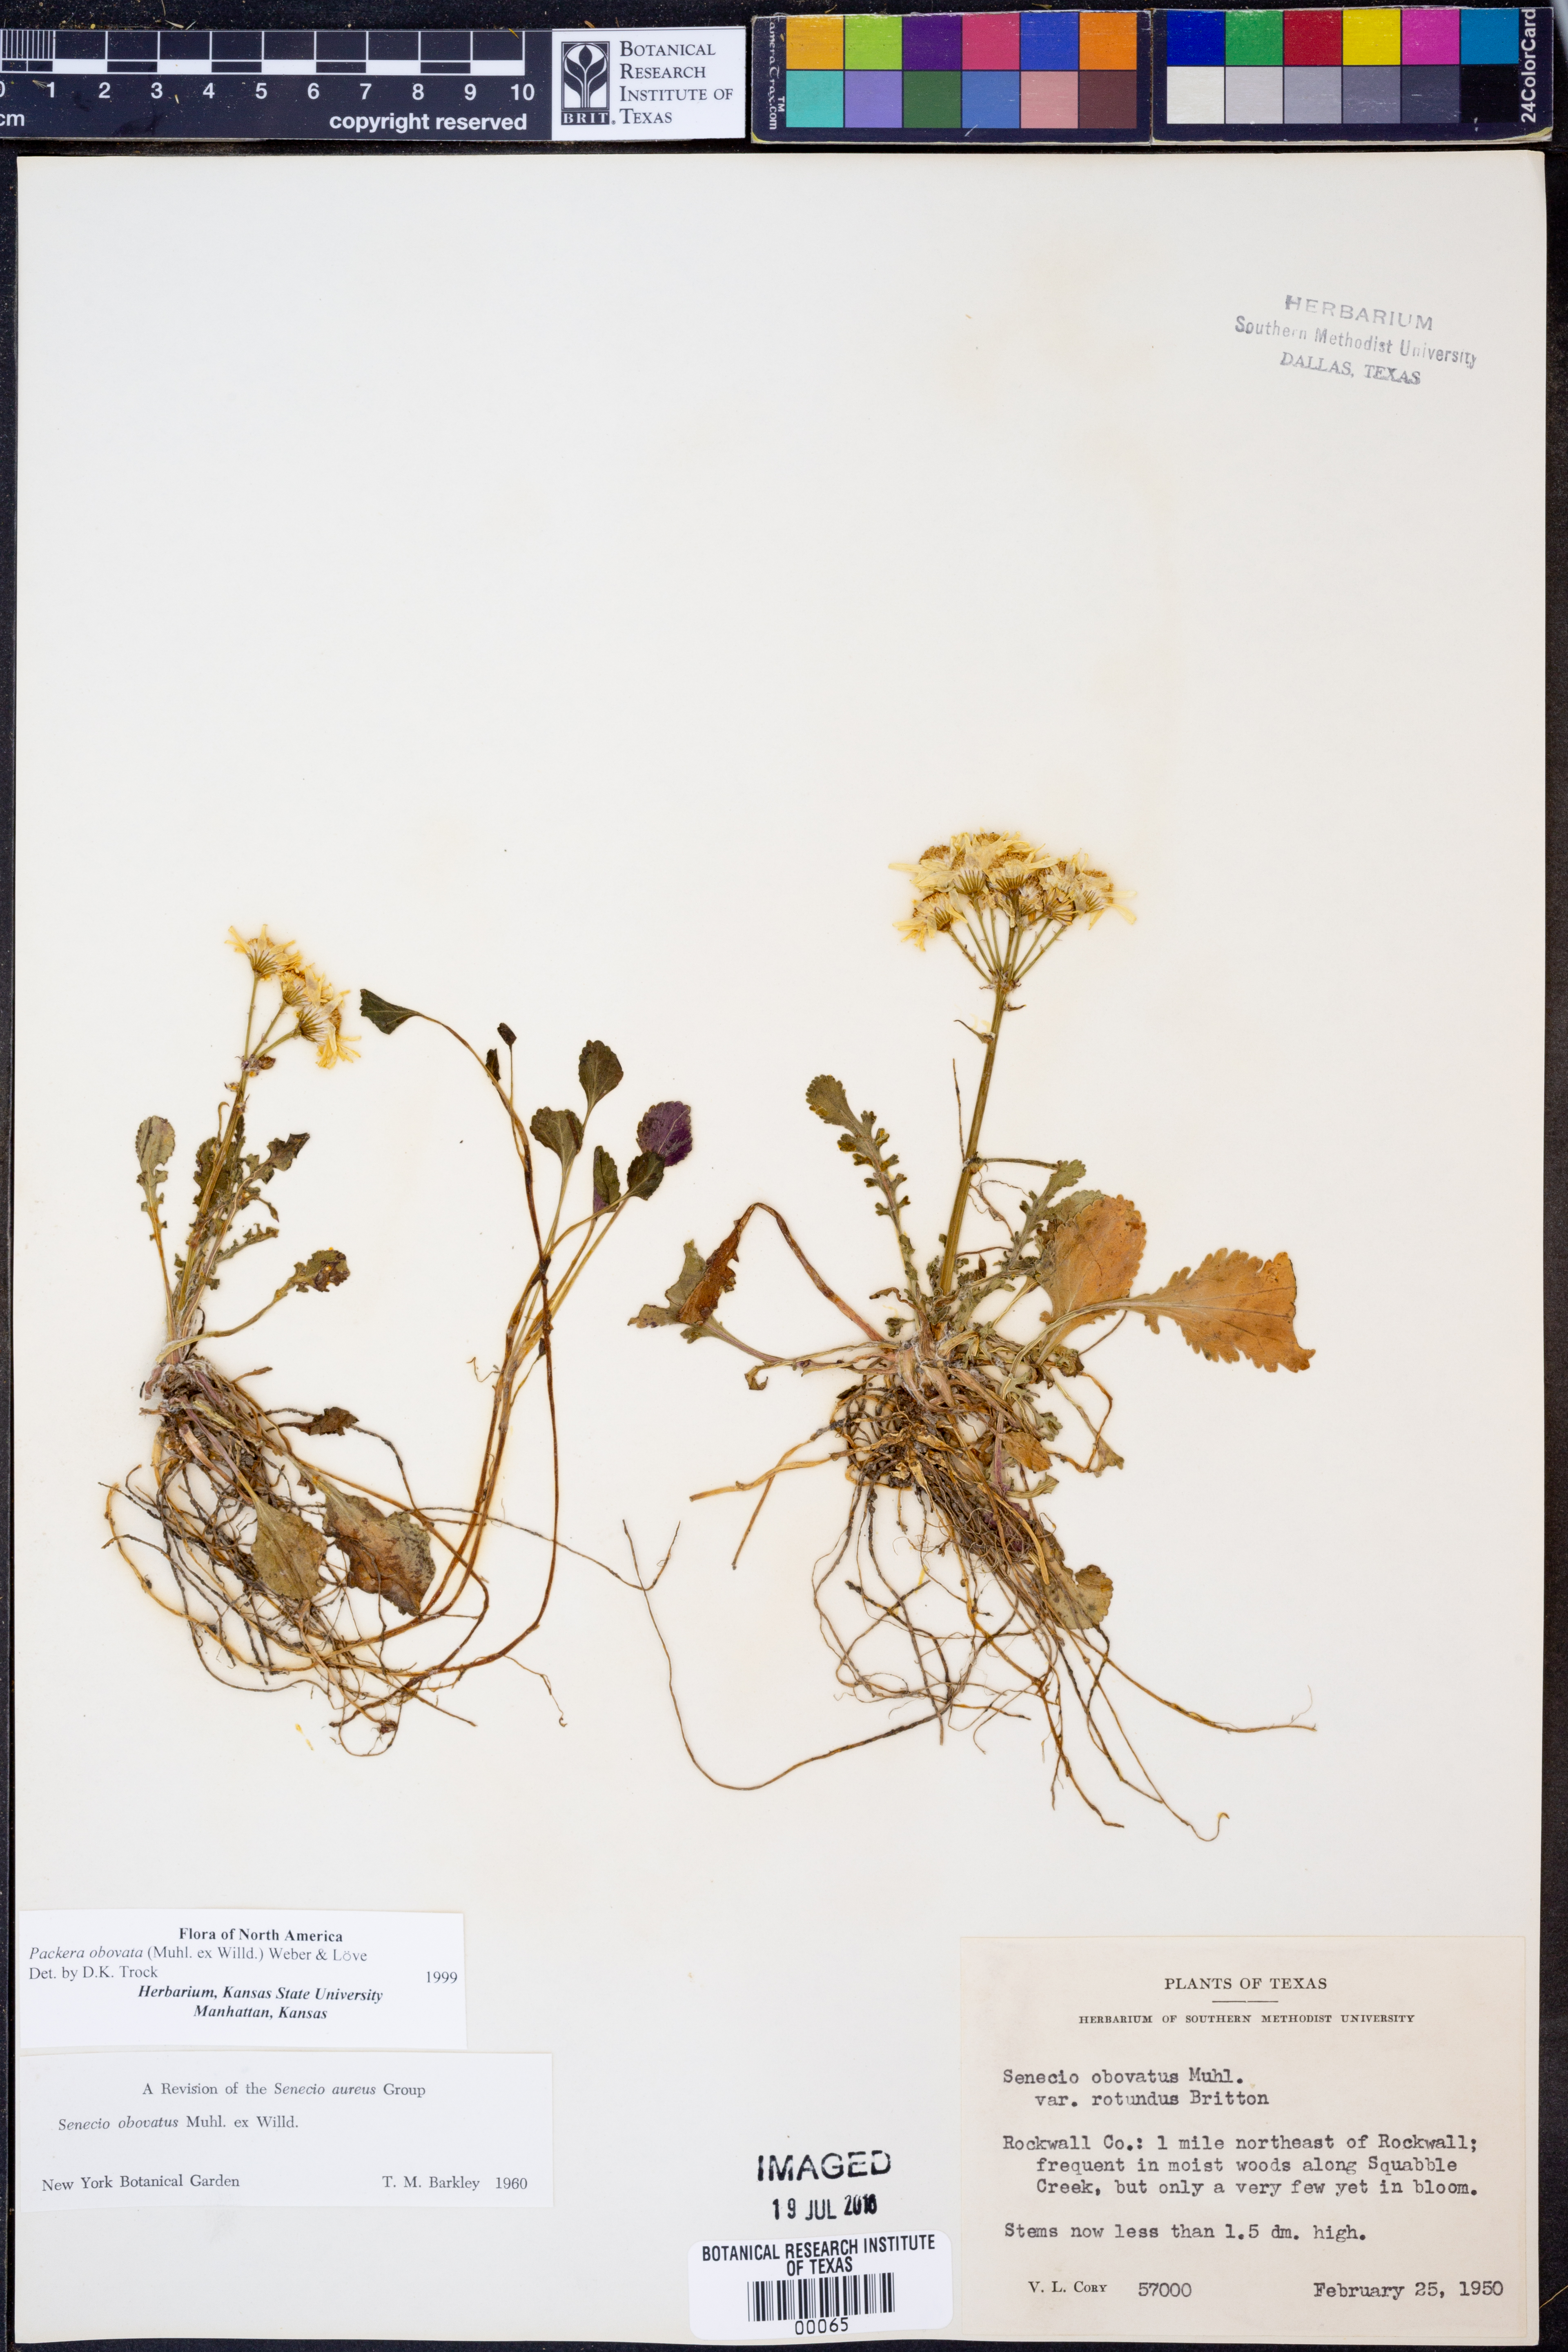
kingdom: Plantae
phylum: Tracheophyta
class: Magnoliopsida
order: Asterales
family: Asteraceae
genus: Packera
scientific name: Packera obovata
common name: Round-leaf ragwort
